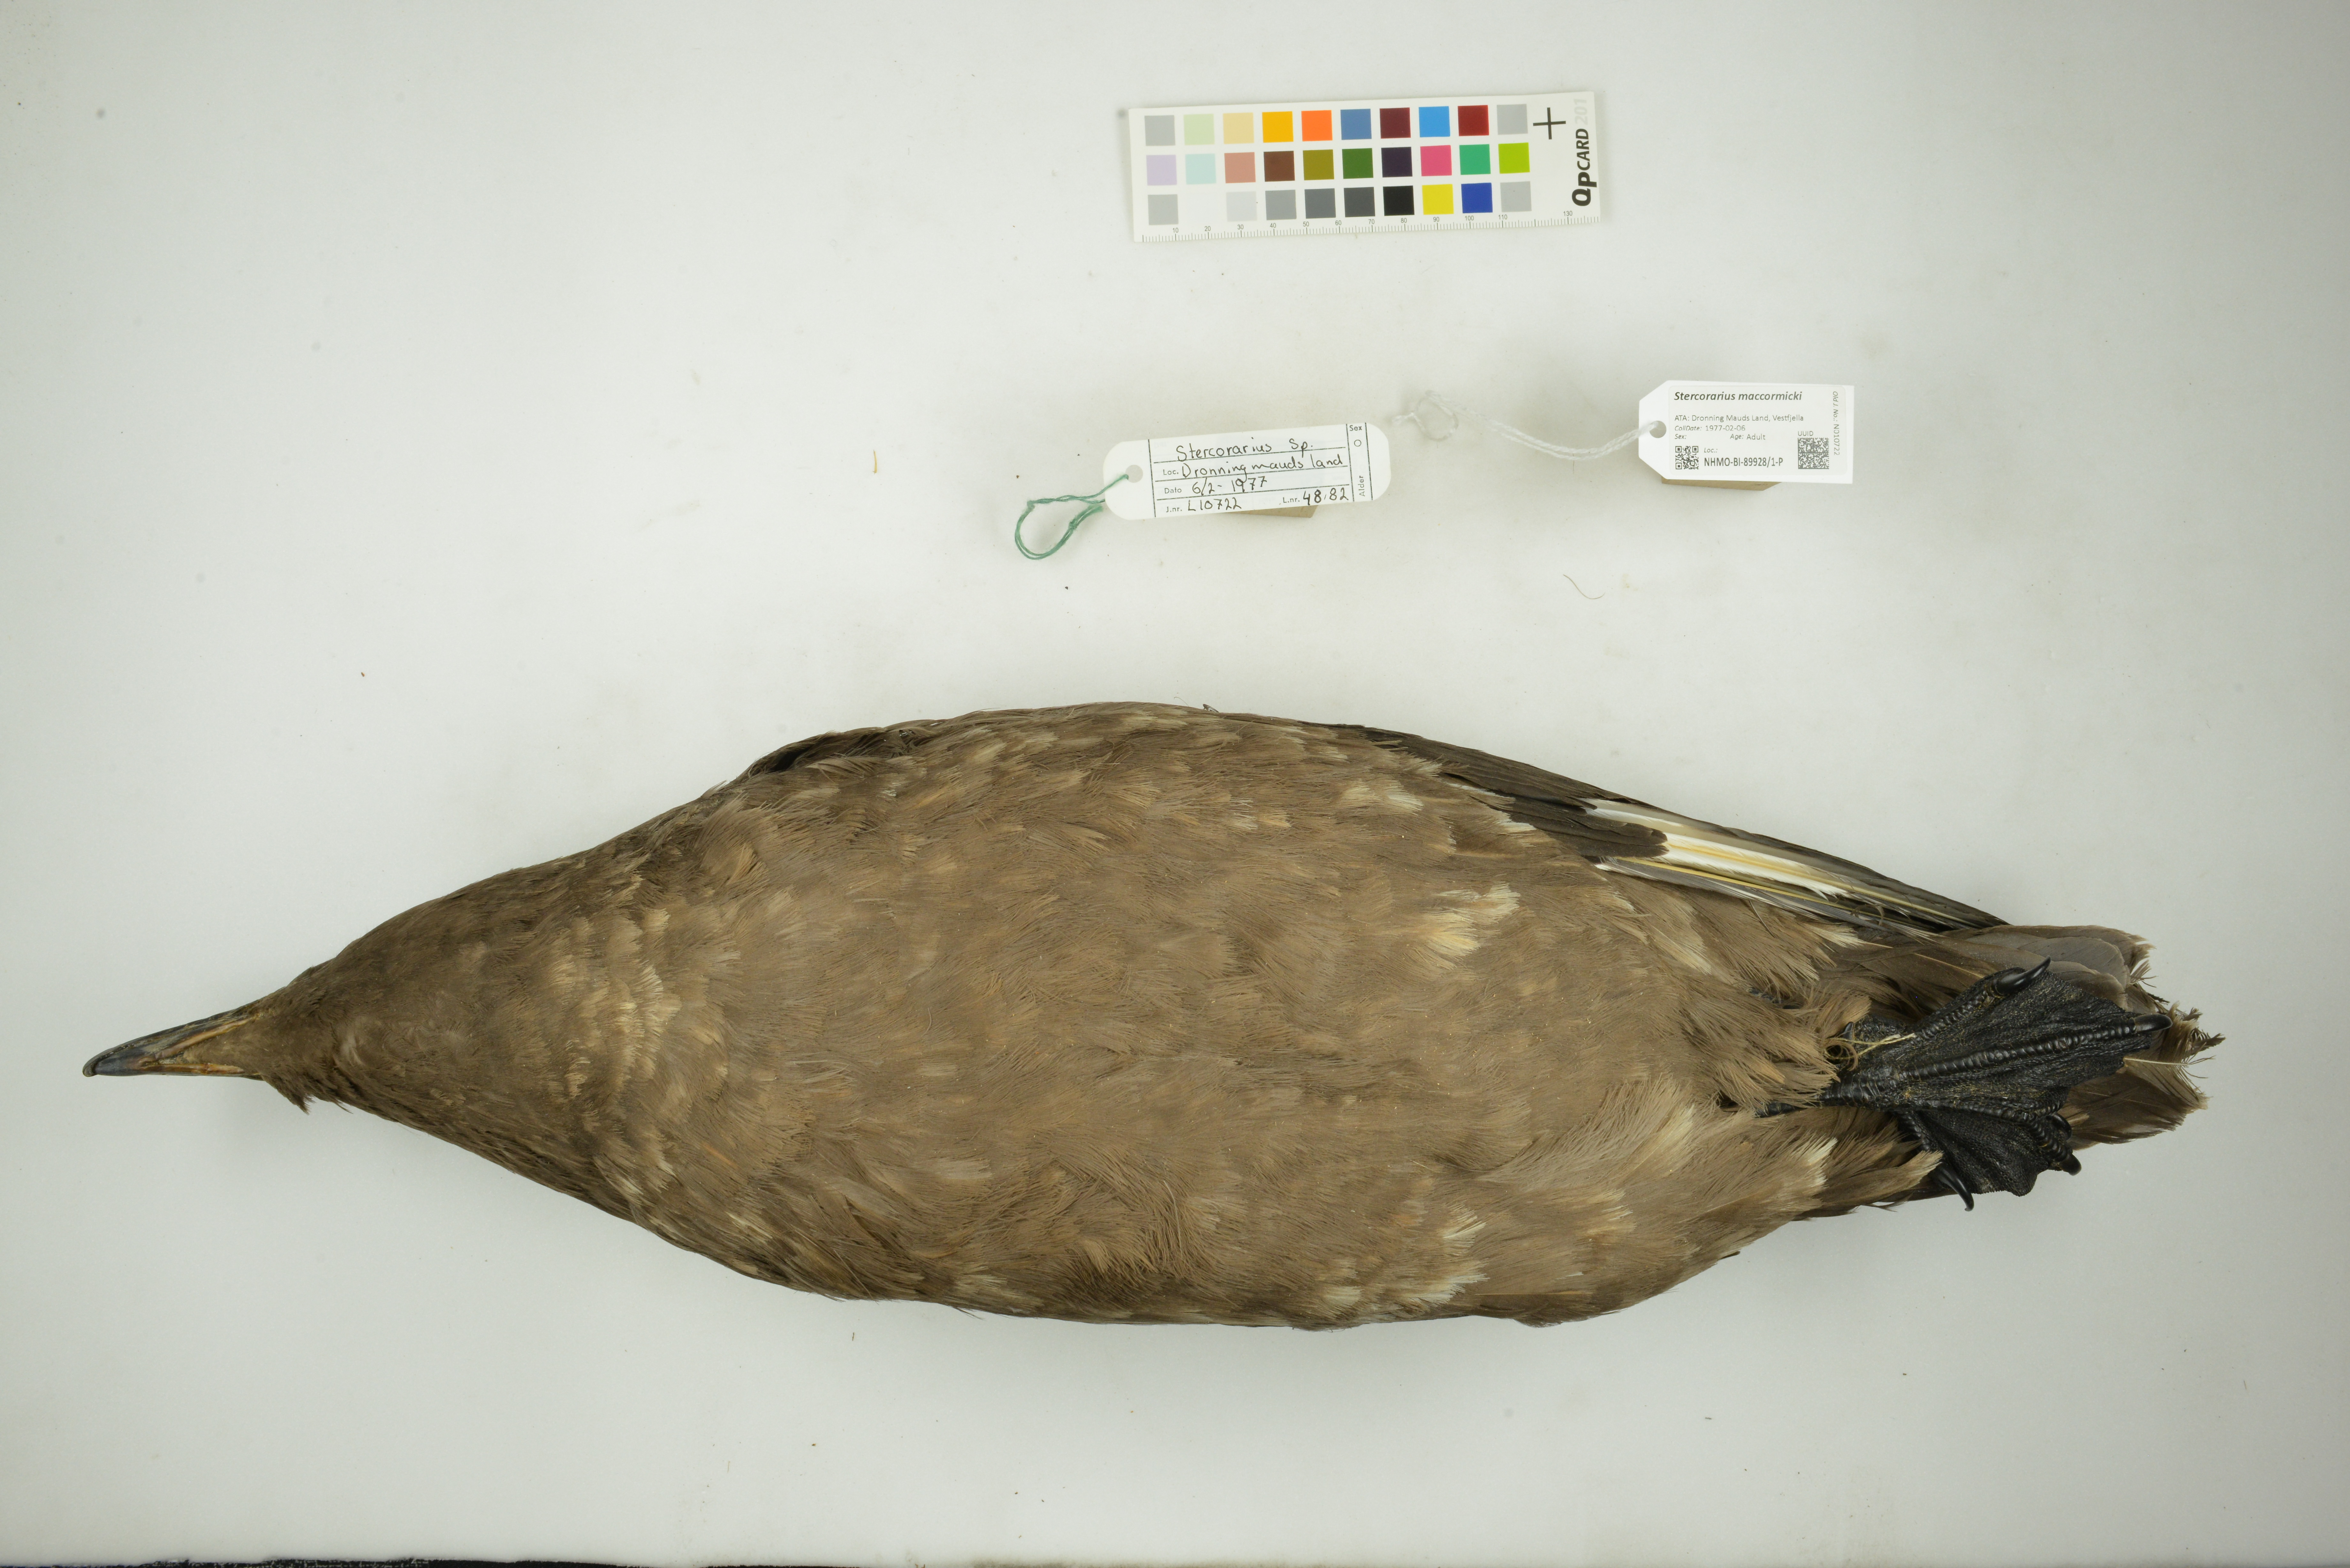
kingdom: Animalia
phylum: Chordata
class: Aves
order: Charadriiformes
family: Stercorariidae
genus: Stercorarius
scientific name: Stercorarius maccormicki
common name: South polar skua
